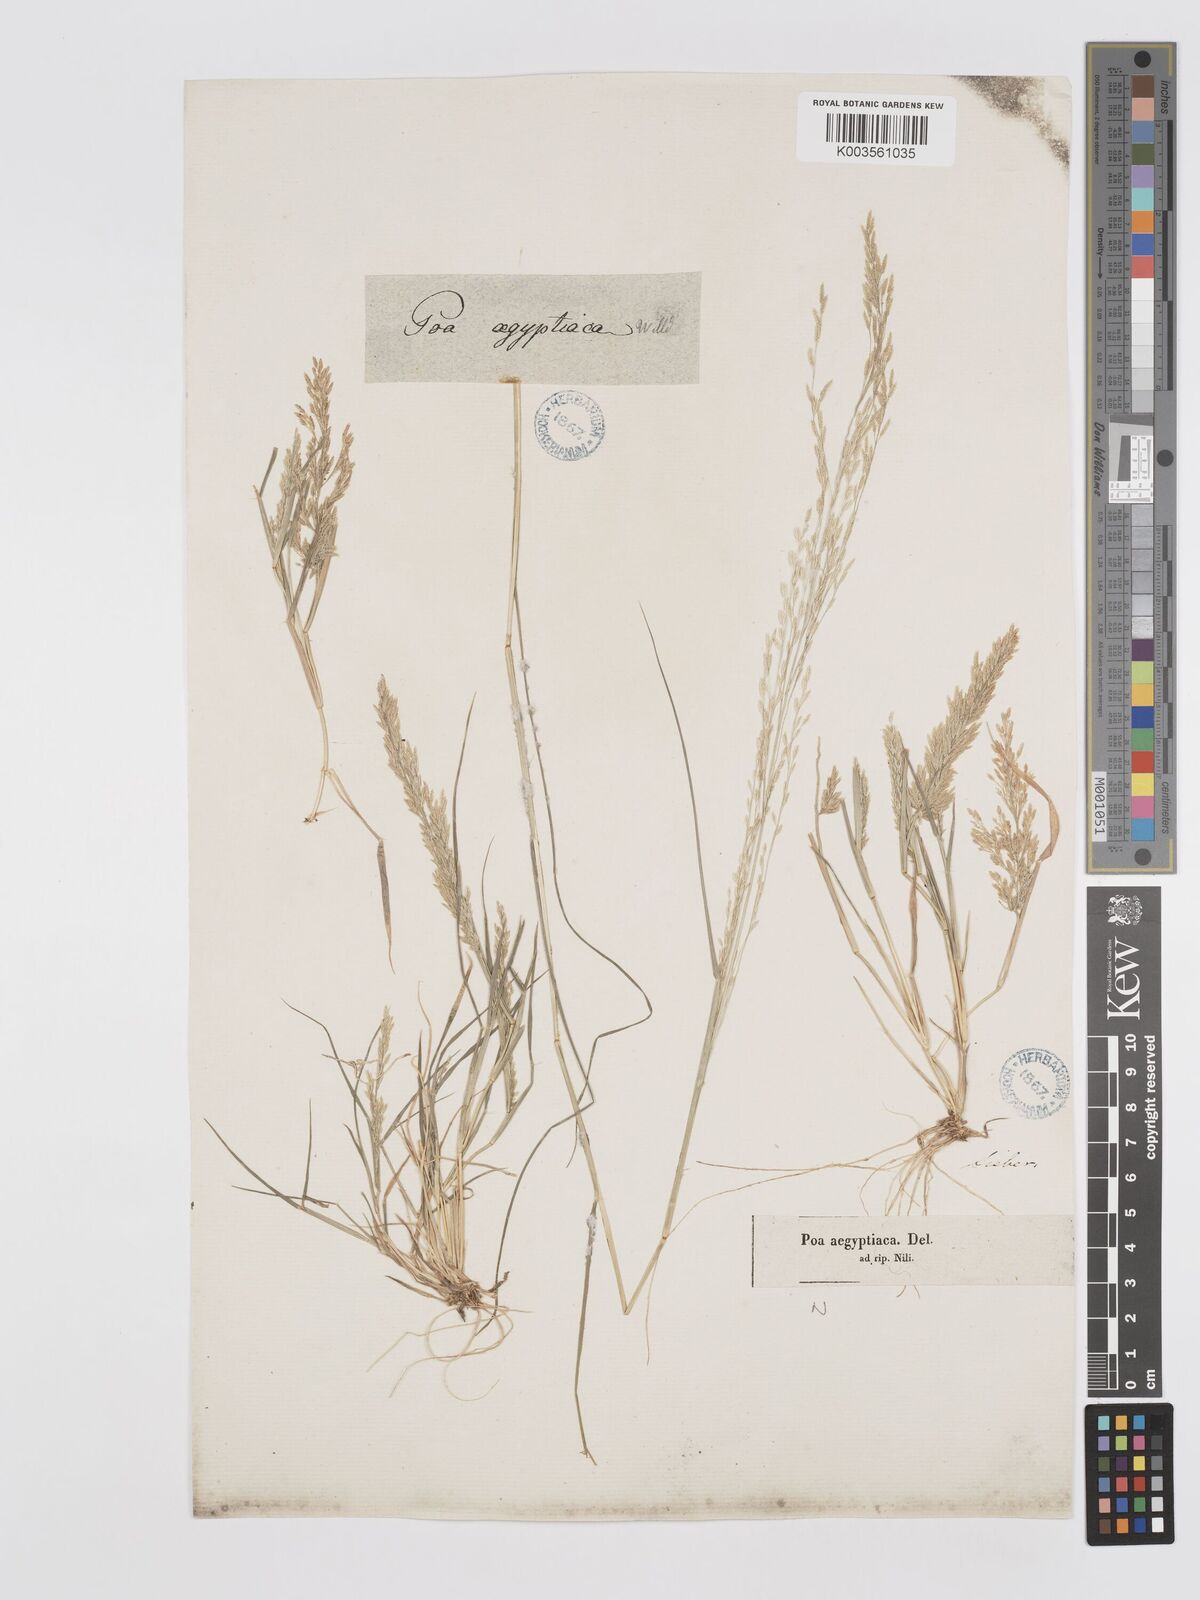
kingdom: Plantae
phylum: Tracheophyta
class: Liliopsida
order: Poales
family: Poaceae
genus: Eragrostis
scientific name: Eragrostis aegyptiaca
